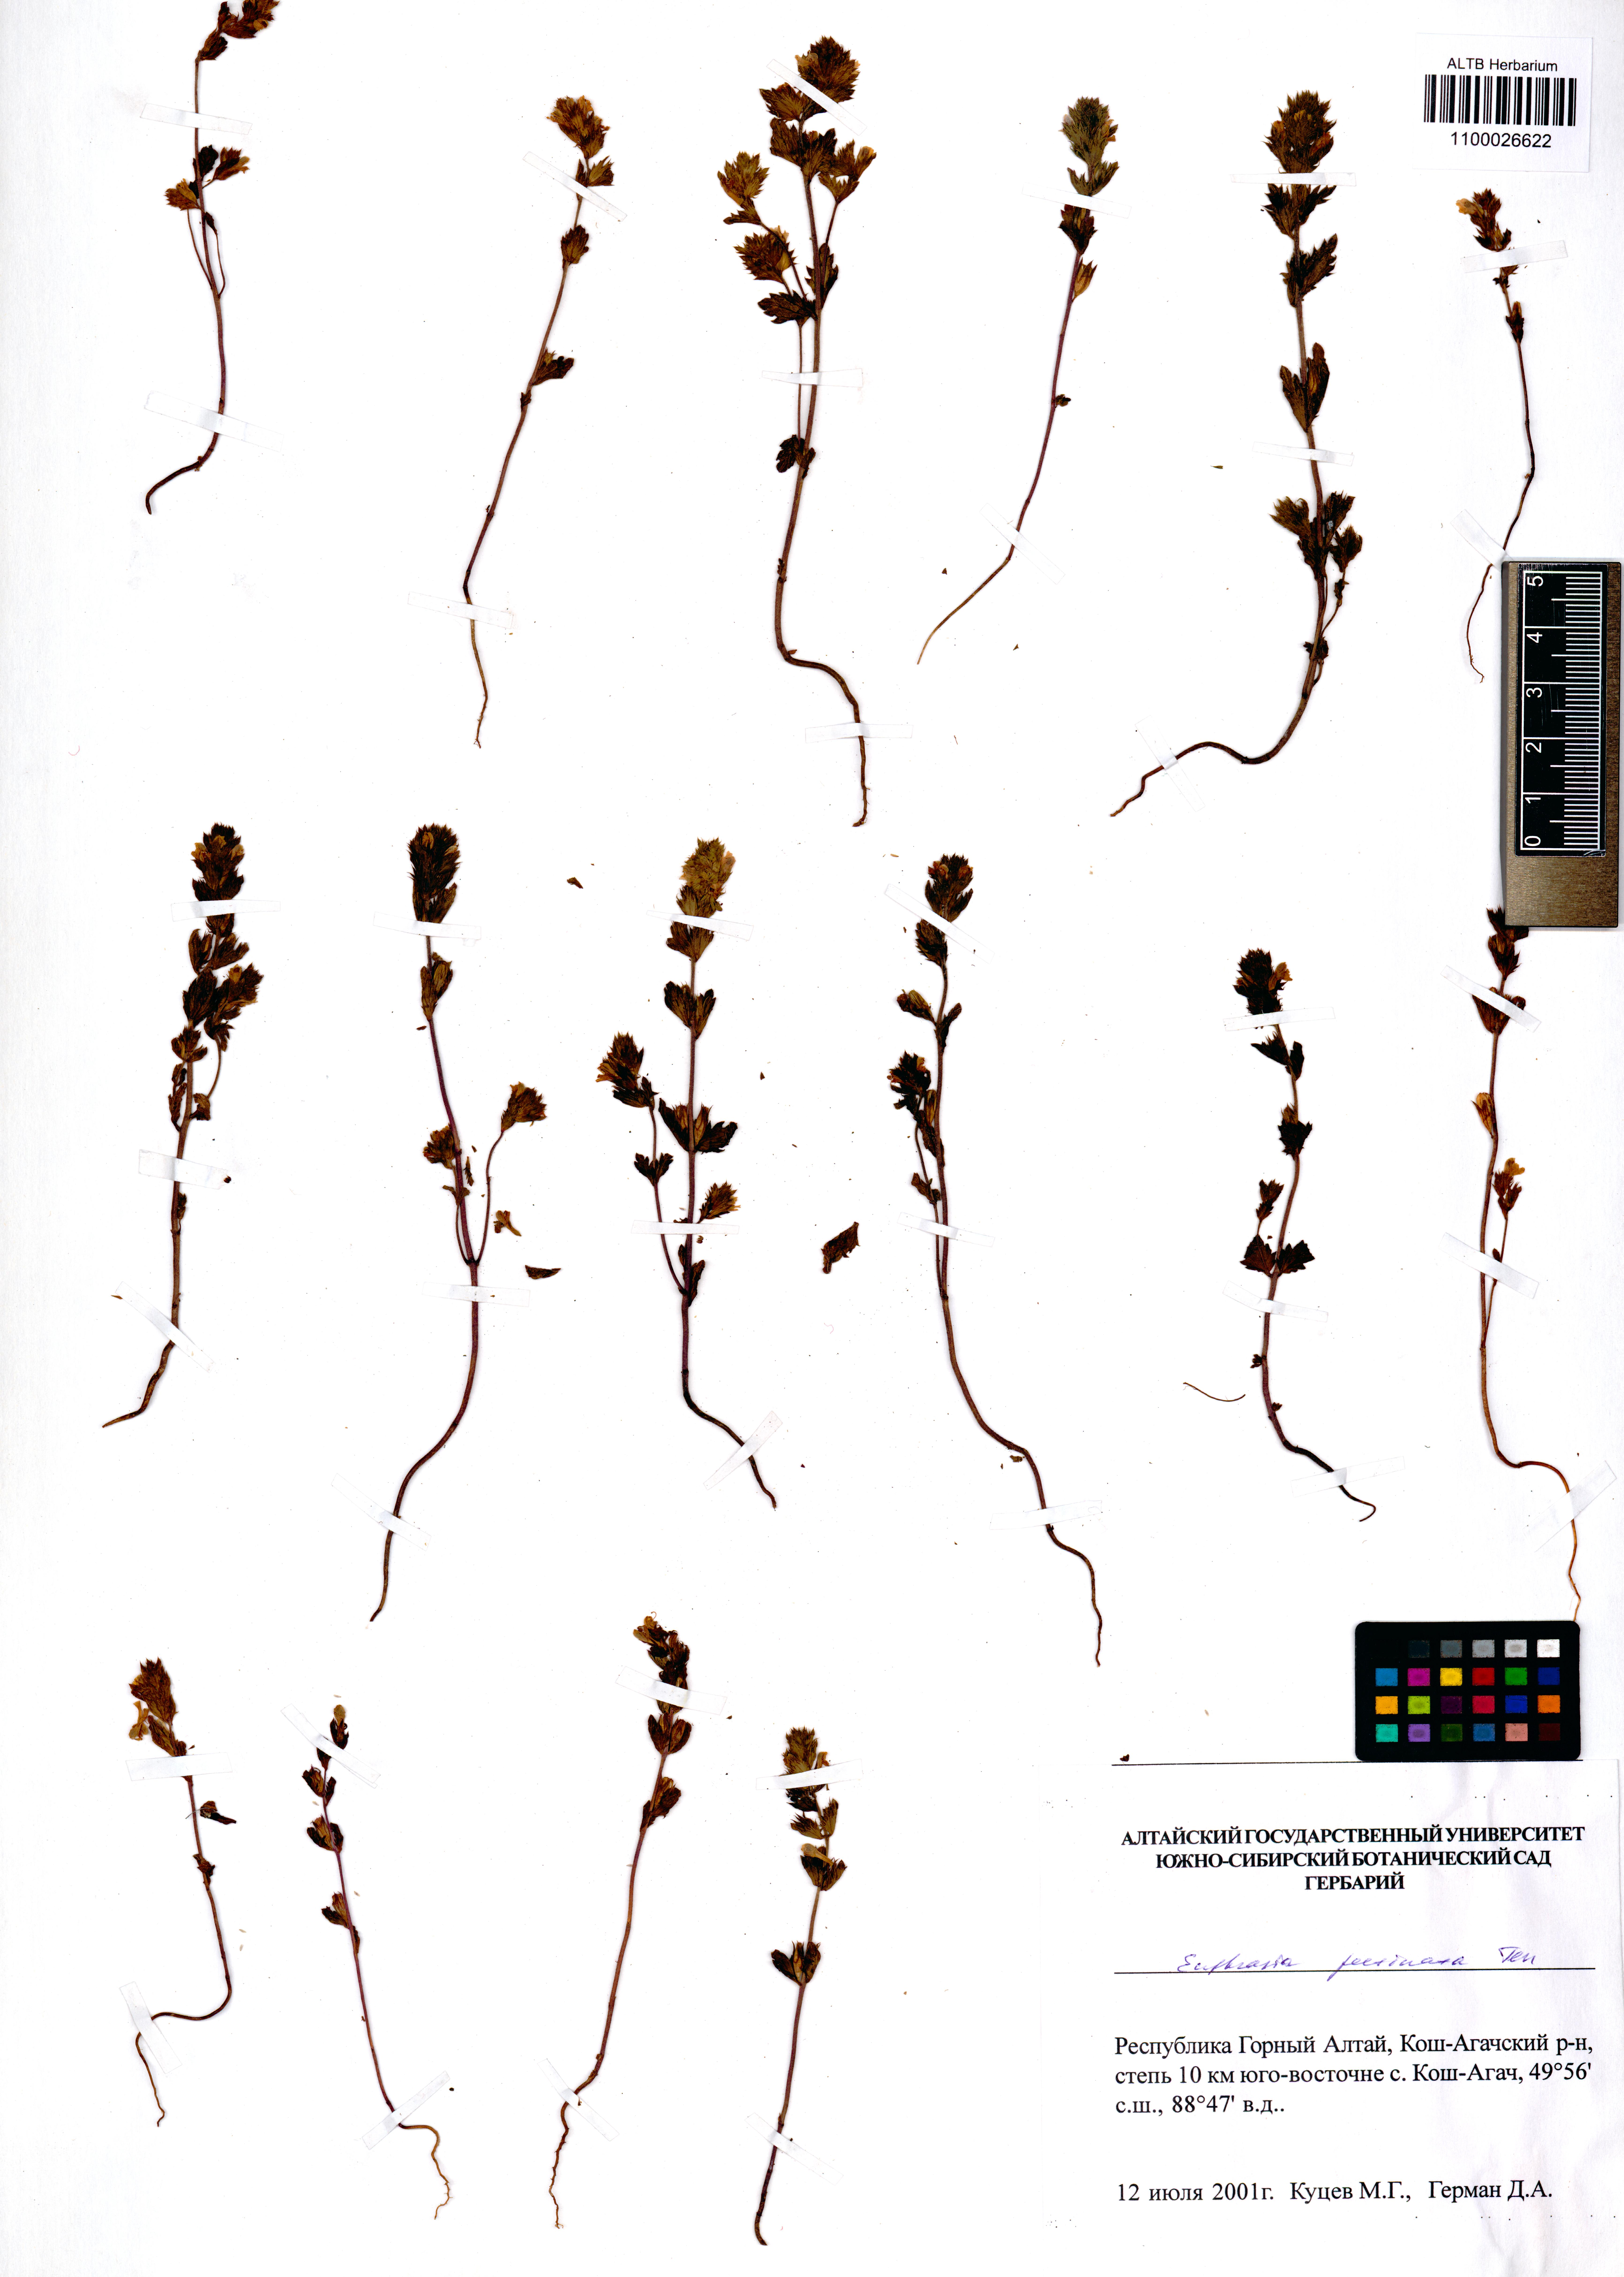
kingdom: Plantae
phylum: Tracheophyta
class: Magnoliopsida
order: Lamiales
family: Orobanchaceae
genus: Euphrasia
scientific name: Euphrasia pectinata
